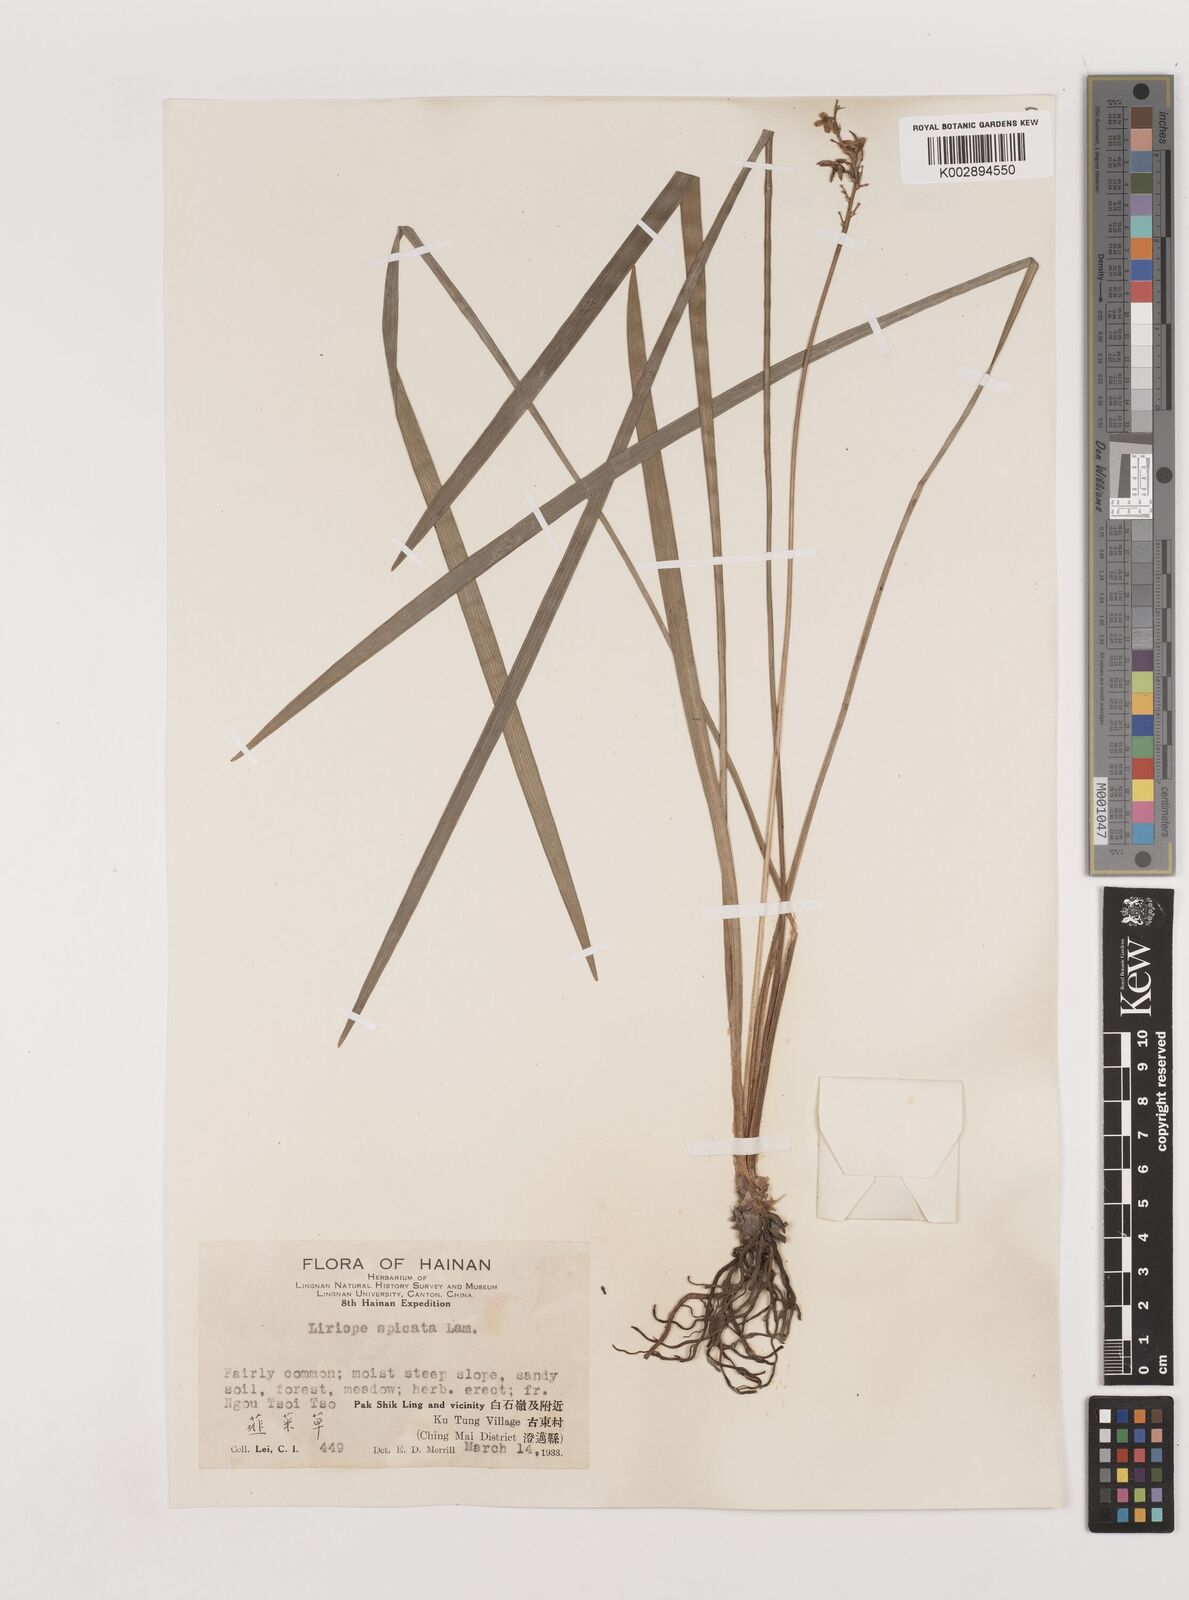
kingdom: Plantae
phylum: Tracheophyta
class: Liliopsida
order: Asparagales
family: Asparagaceae
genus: Liriope
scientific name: Liriope spicata
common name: Creeping liriope
